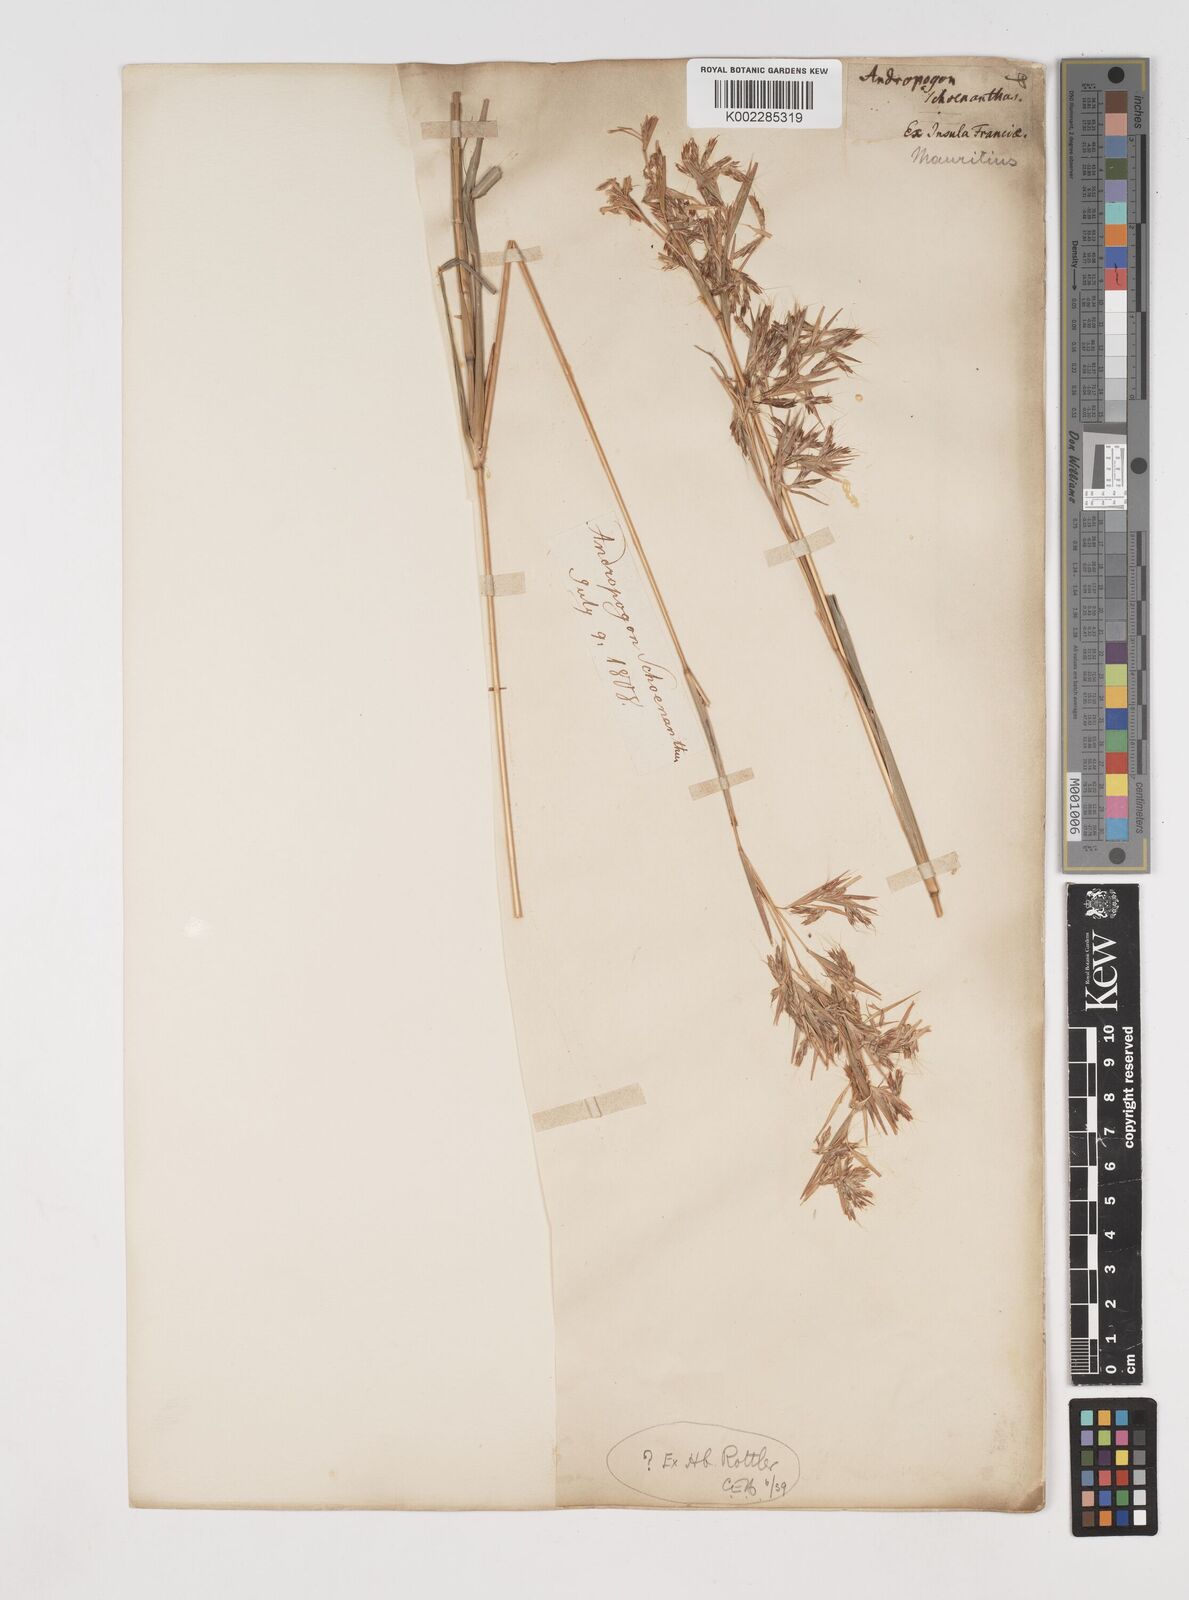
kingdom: Plantae
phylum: Tracheophyta
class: Liliopsida
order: Poales
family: Poaceae
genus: Cymbopogon
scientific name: Cymbopogon pruinosus
